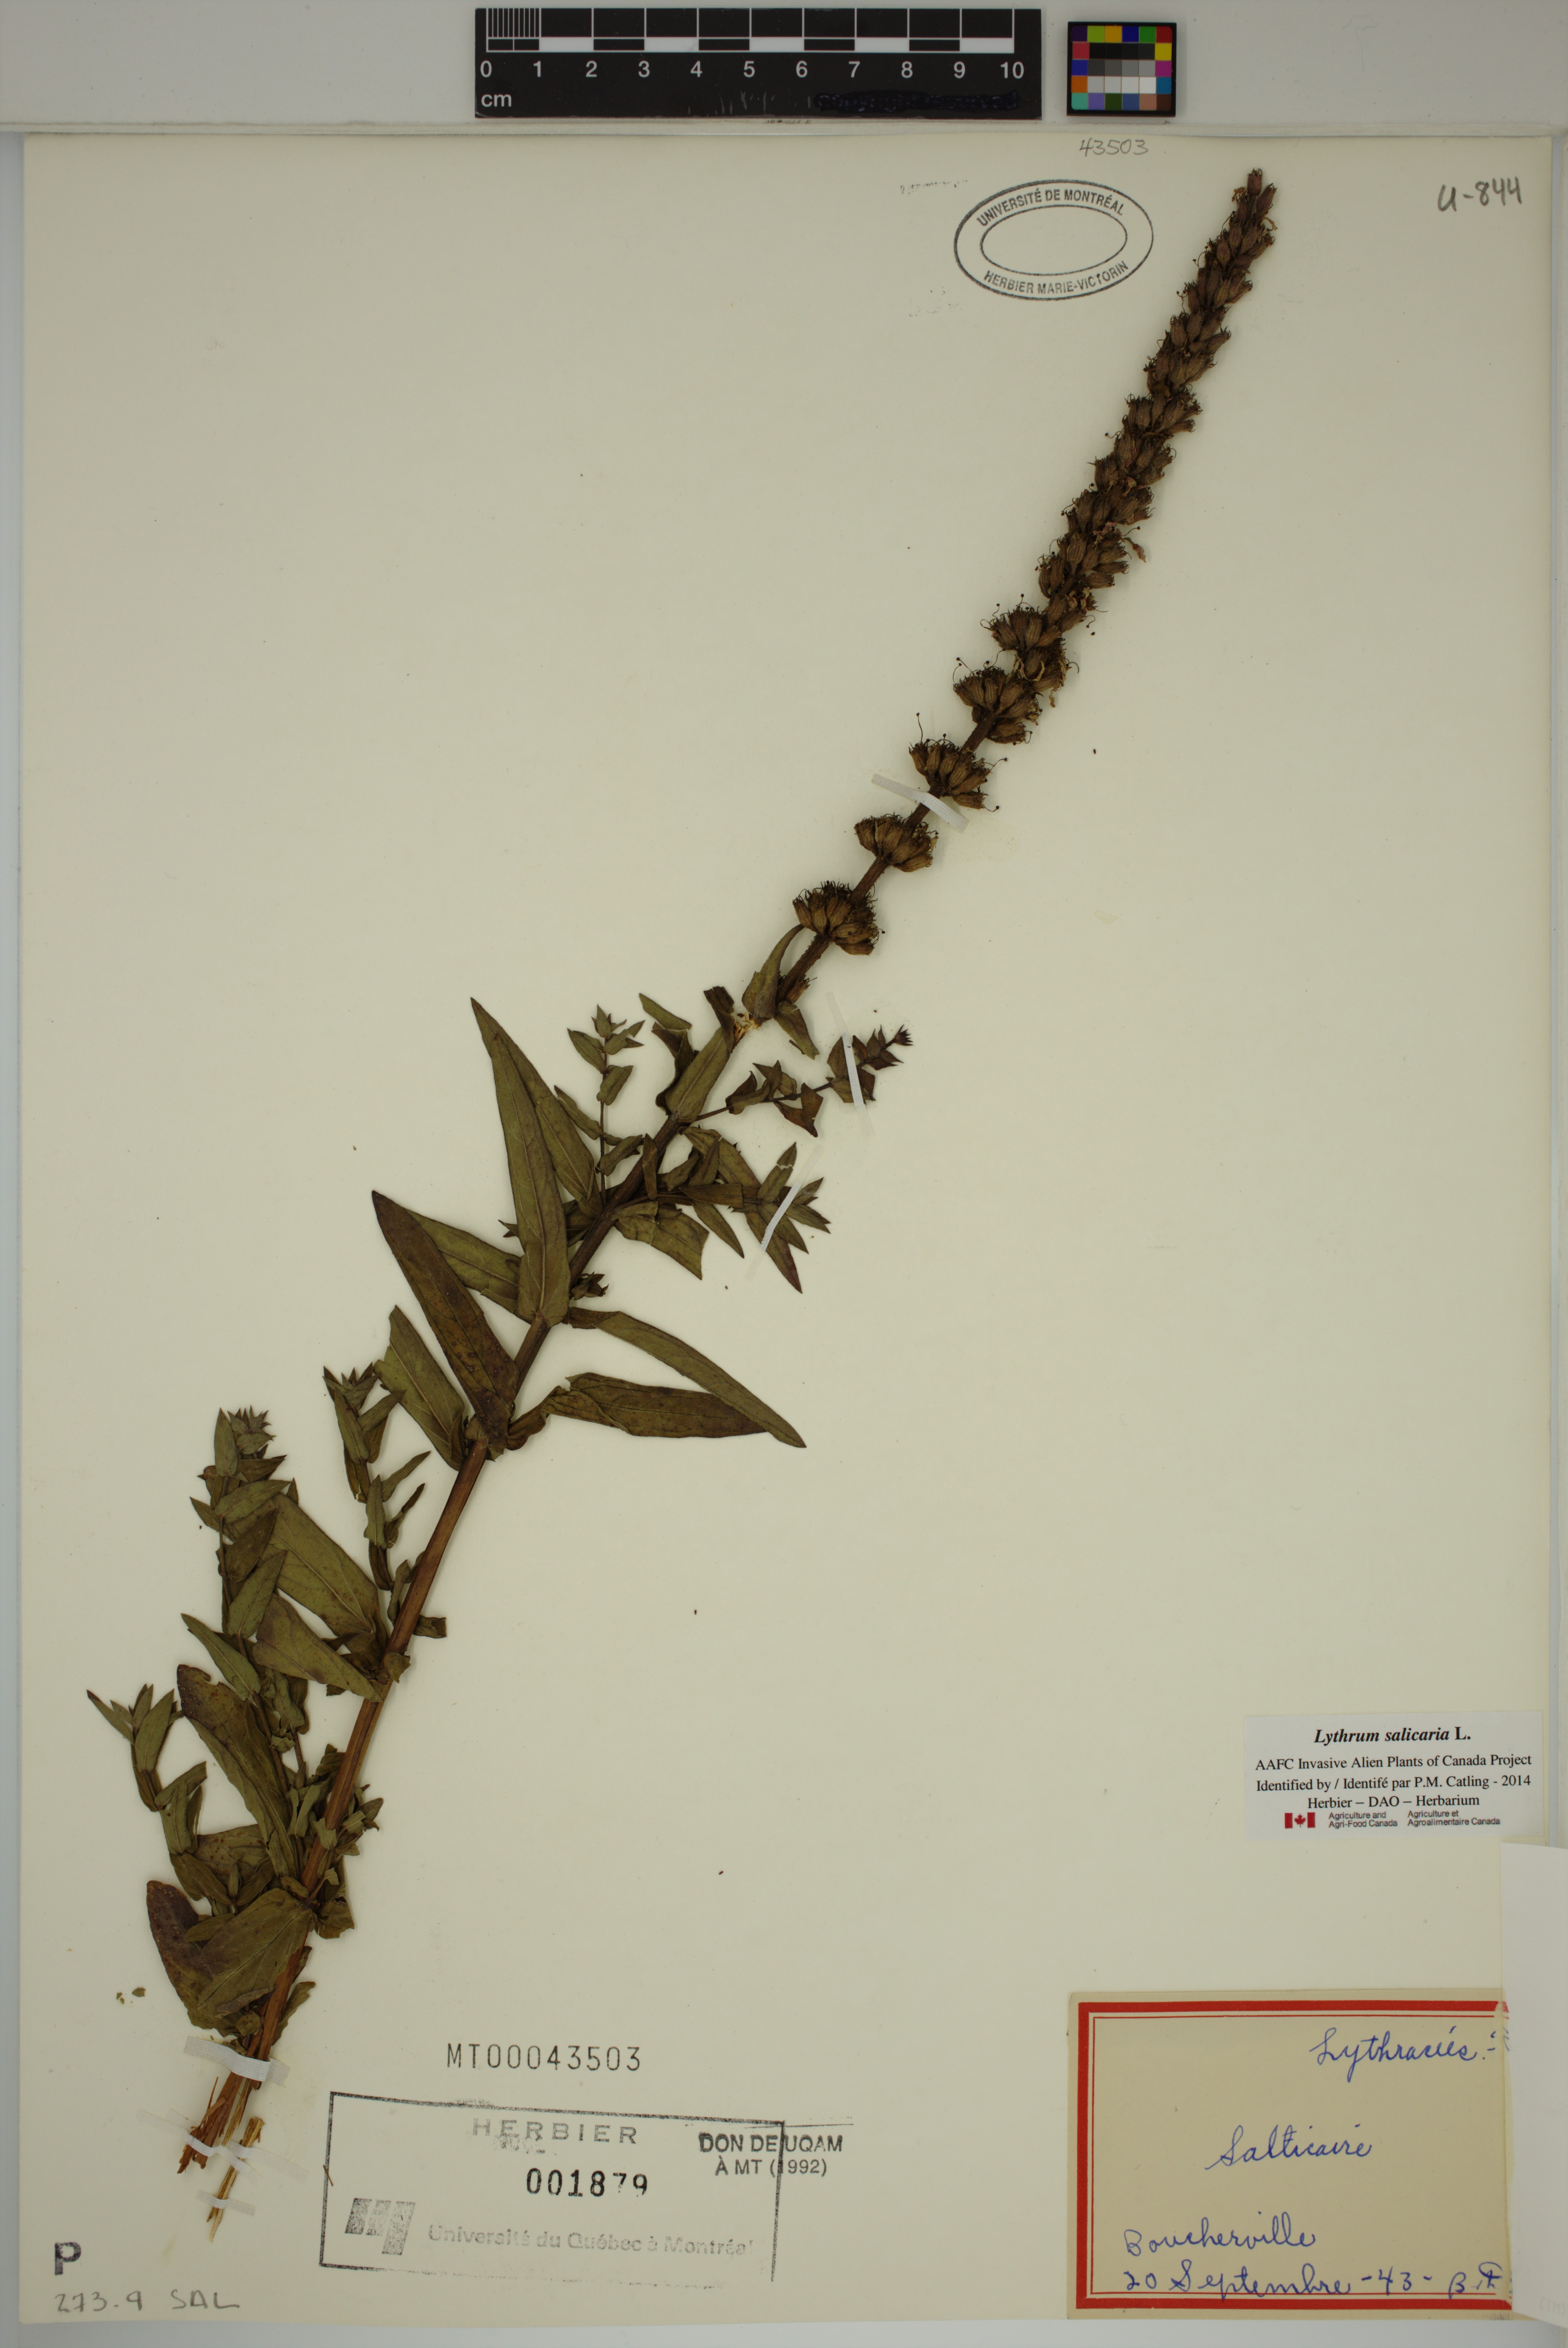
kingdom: Plantae
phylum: Tracheophyta
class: Magnoliopsida
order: Myrtales
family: Lythraceae
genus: Lythrum
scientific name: Lythrum salicaria
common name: Purple loosestrife
